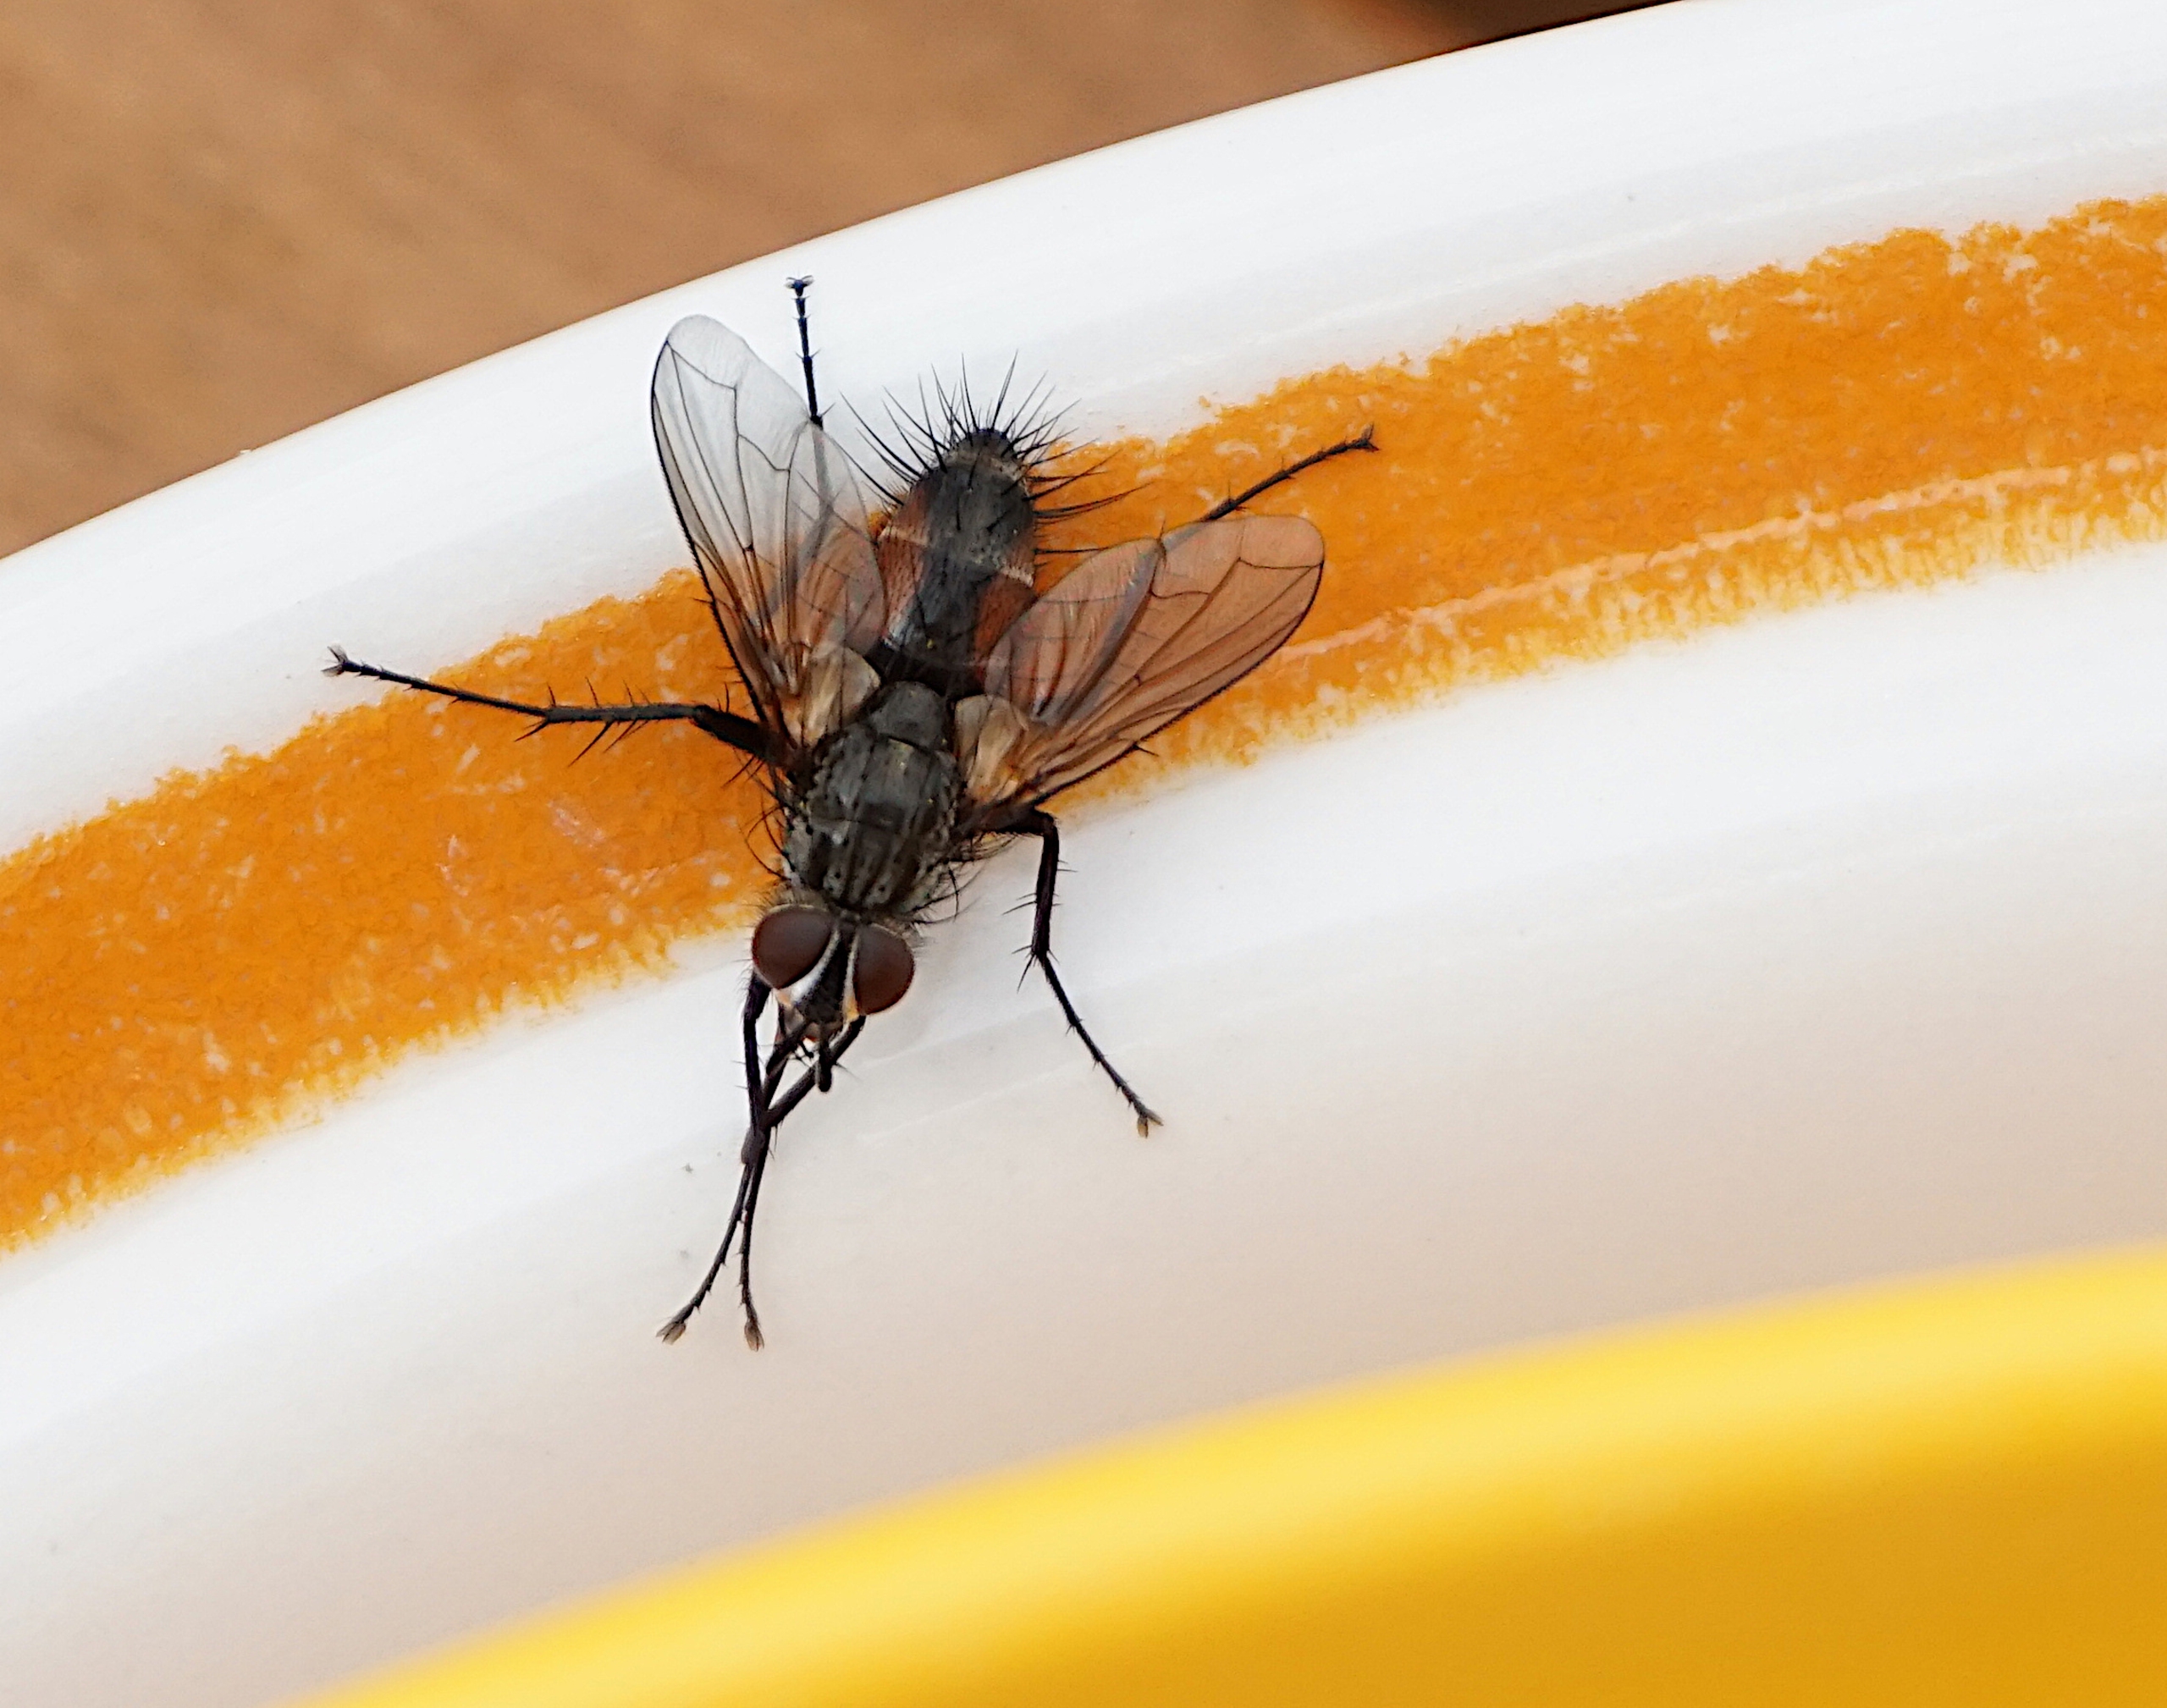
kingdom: Animalia
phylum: Arthropoda
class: Insecta
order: Diptera
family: Tachinidae
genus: Eriothrix
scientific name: Eriothrix rufomaculatus
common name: Rød snylteflue
